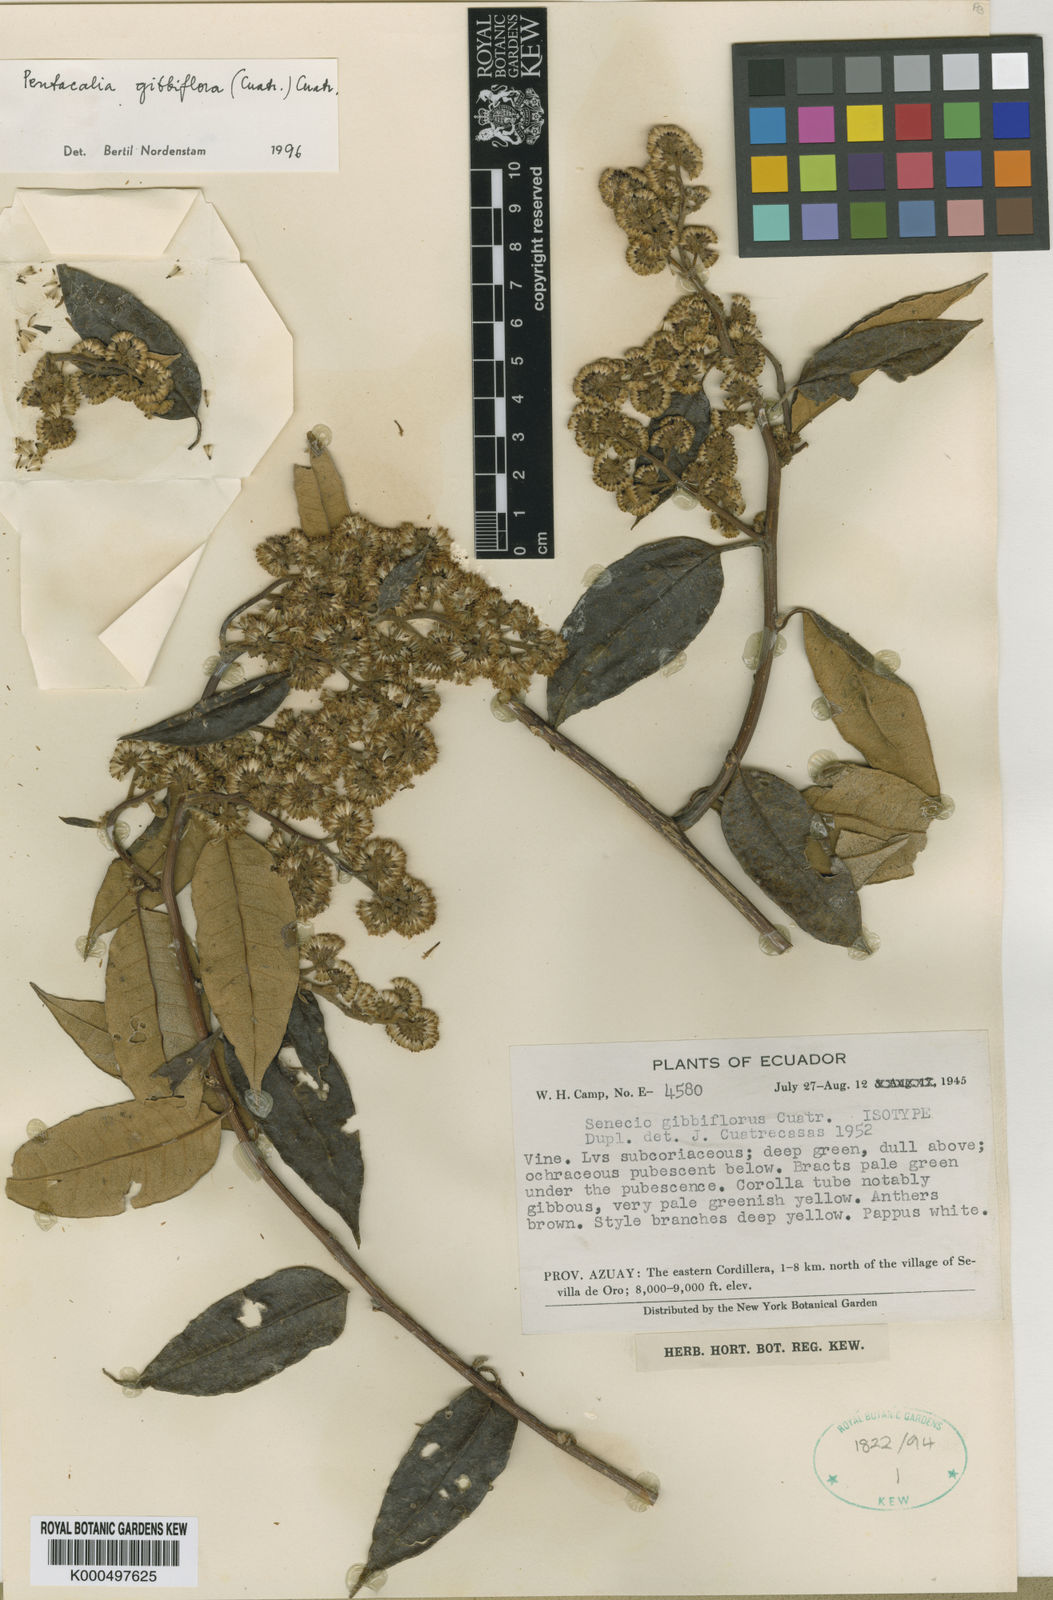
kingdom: Plantae
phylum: Tracheophyta
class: Magnoliopsida
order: Asterales
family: Asteraceae
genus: Pentacalia
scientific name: Pentacalia gibbiflora
